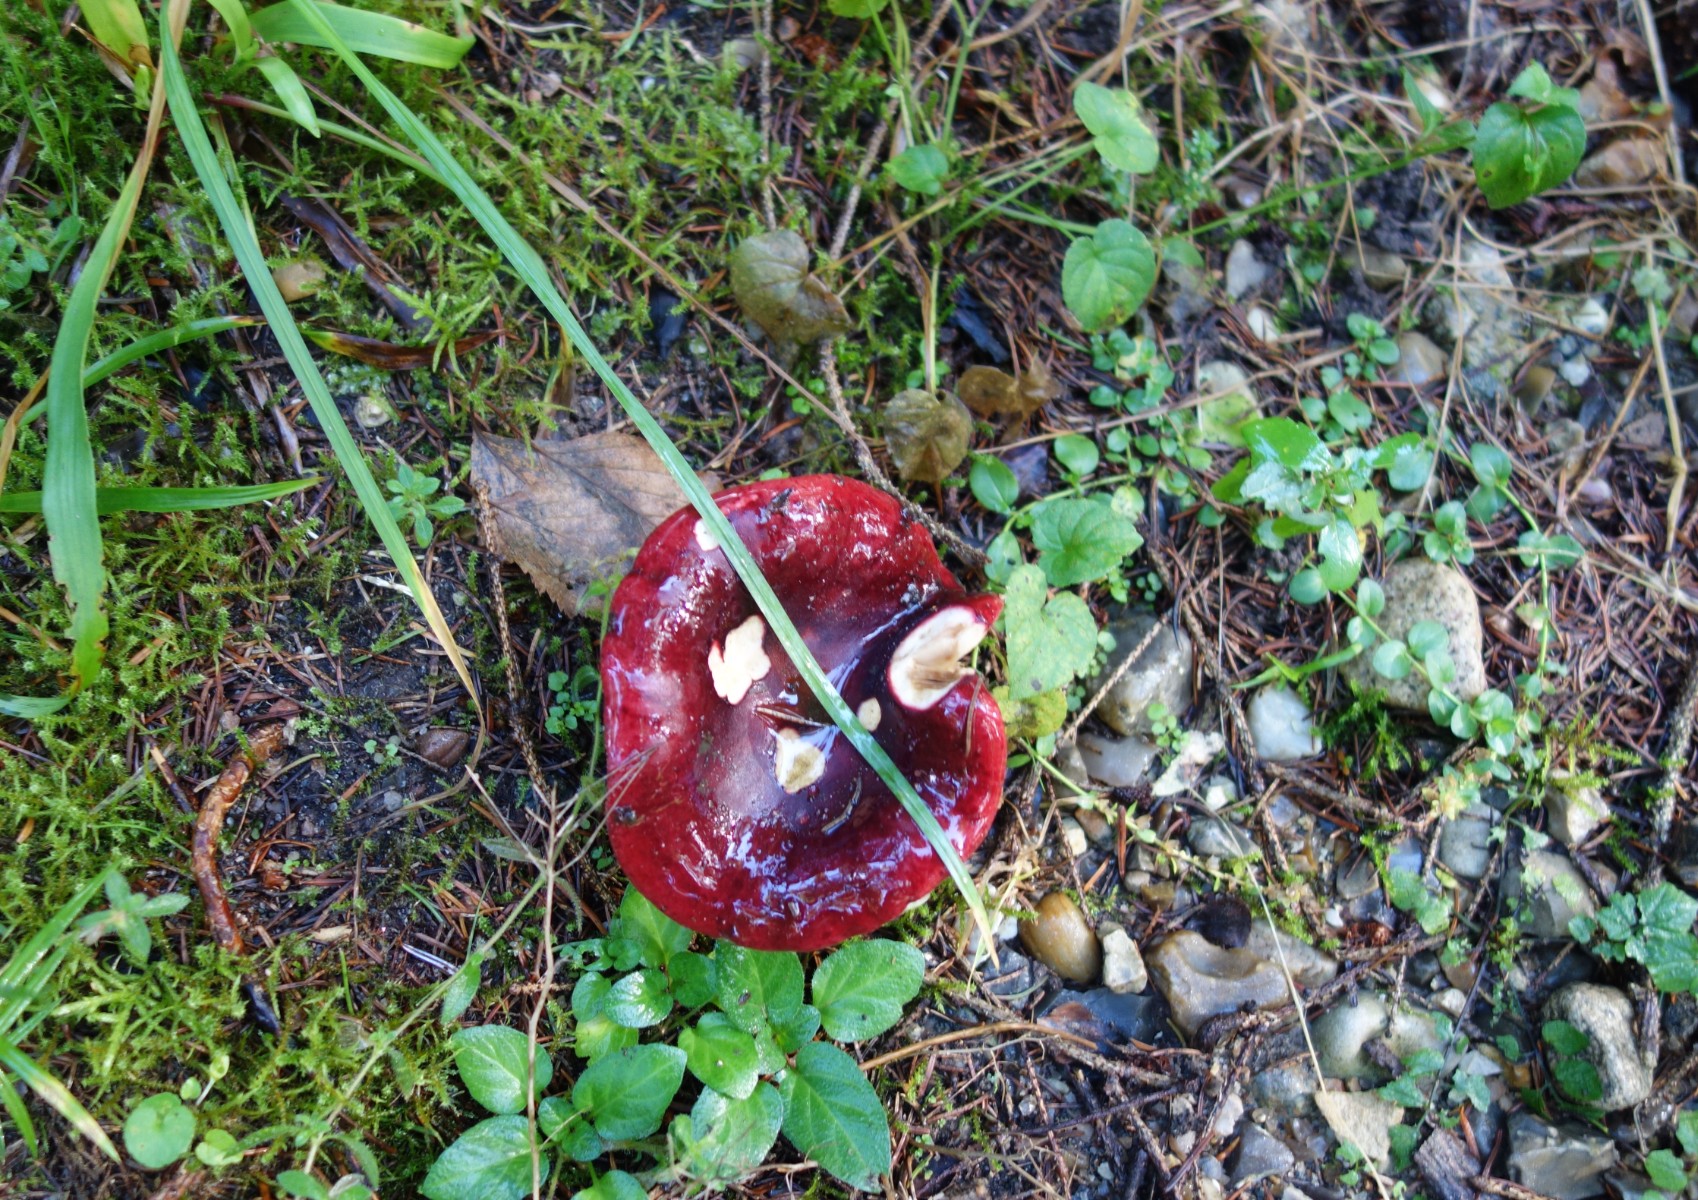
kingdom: Fungi
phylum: Basidiomycota
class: Agaricomycetes
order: Russulales
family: Russulaceae
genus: Russula
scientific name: Russula xerampelina
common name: hummer-skørhat
